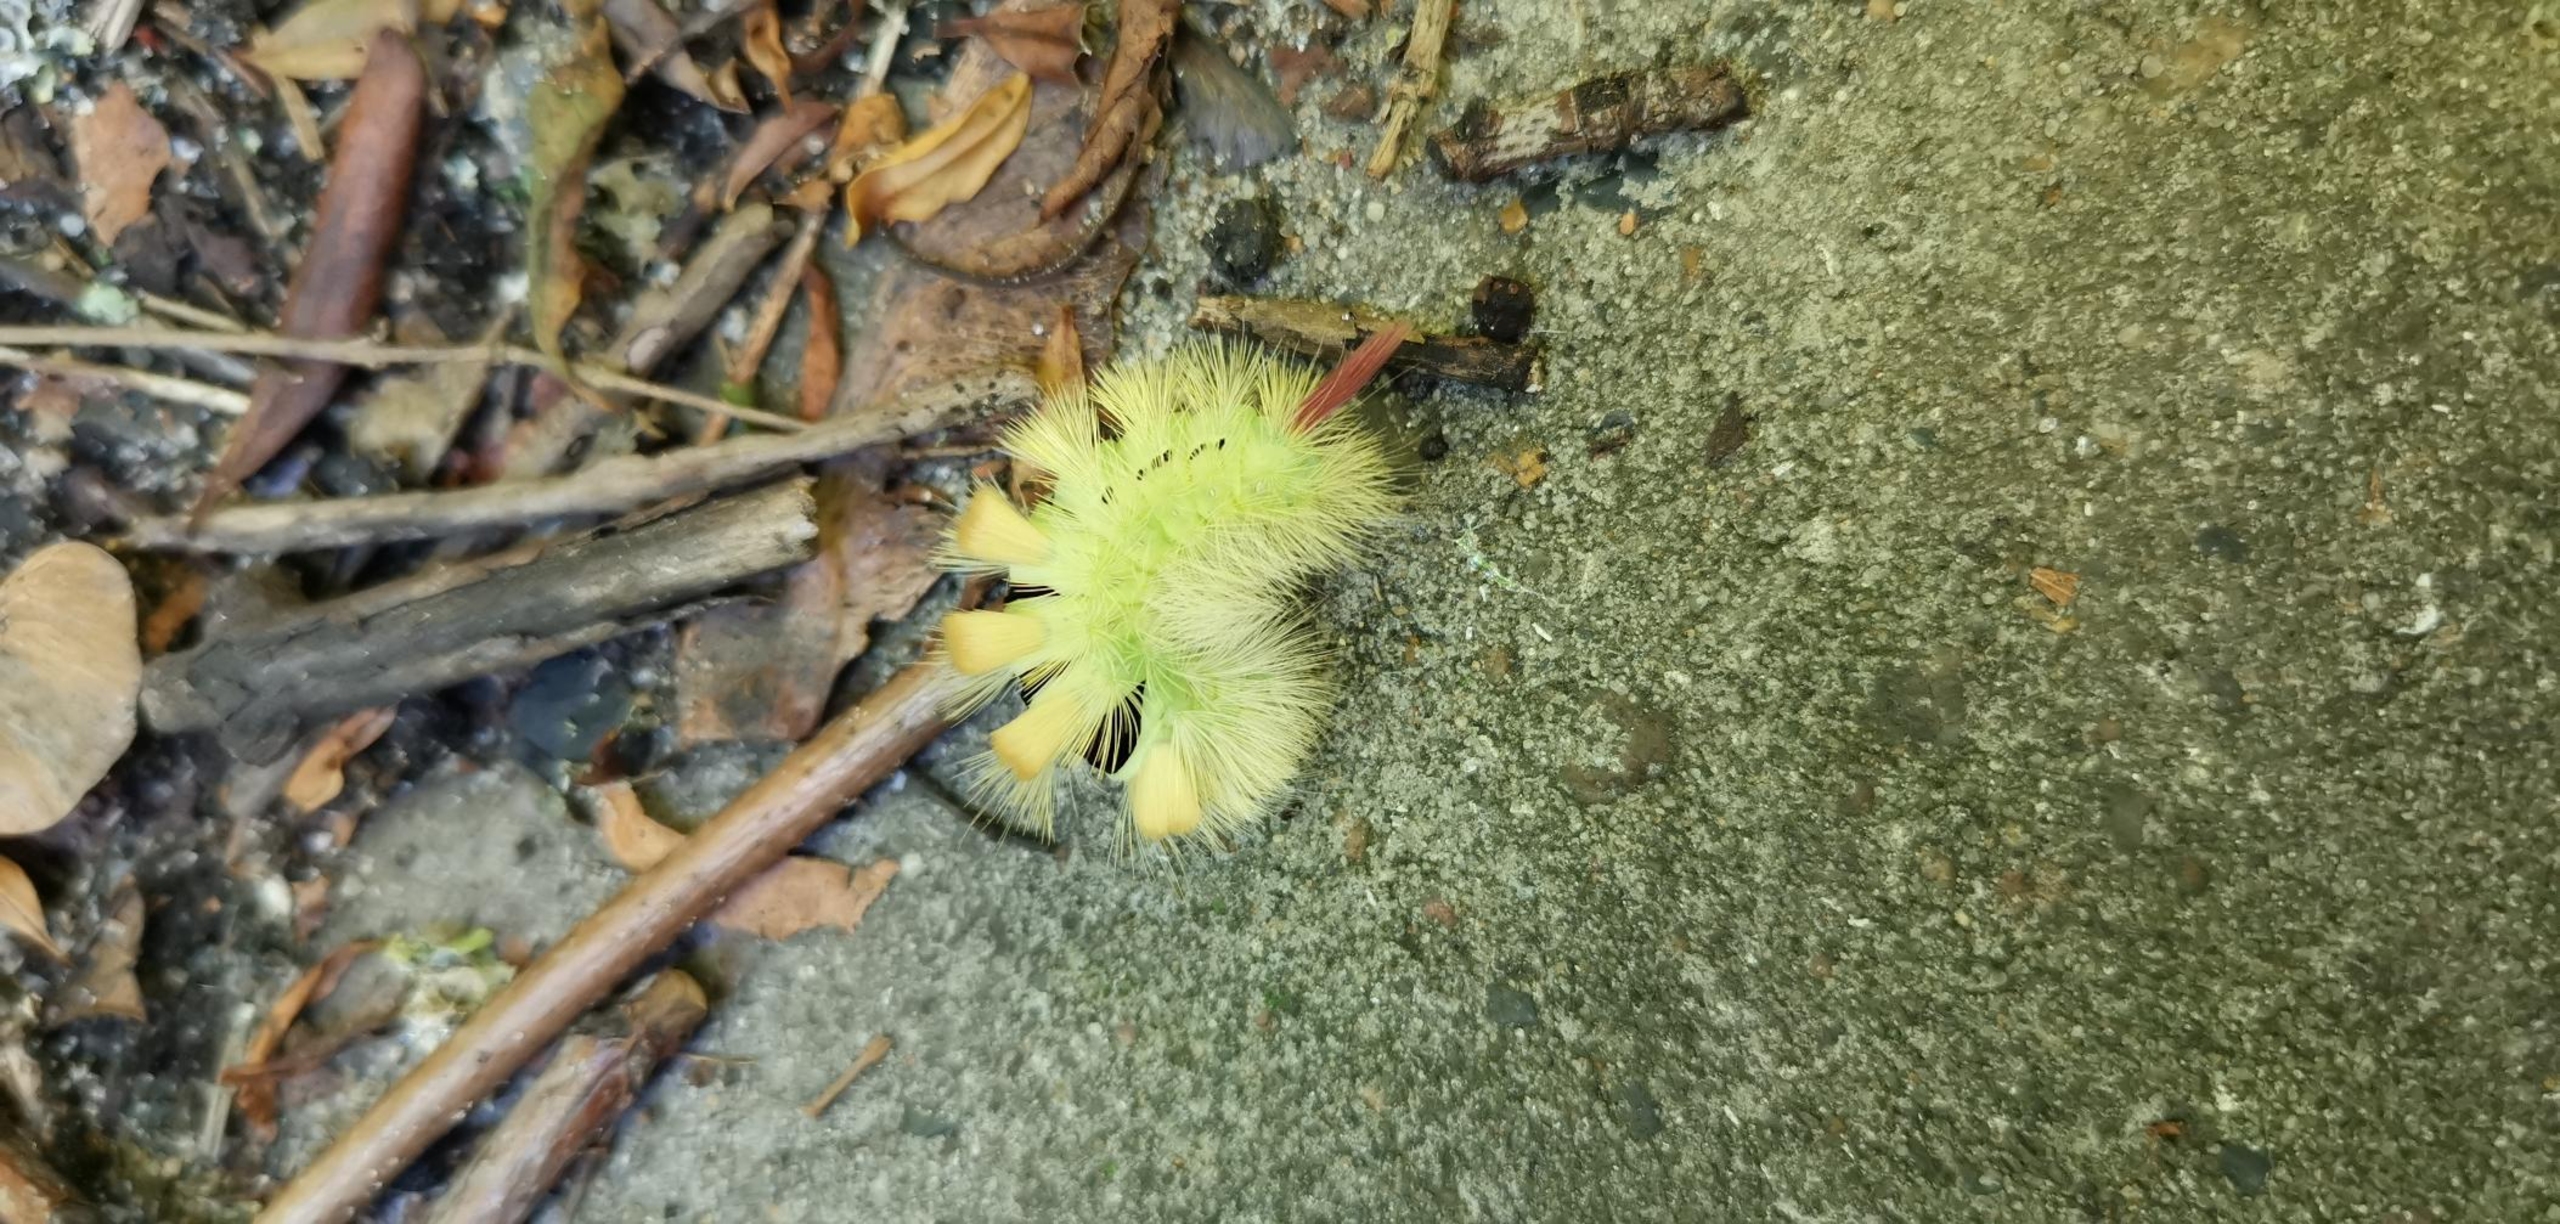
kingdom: Animalia
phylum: Arthropoda
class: Insecta
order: Lepidoptera
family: Erebidae
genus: Calliteara
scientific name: Calliteara pudibunda
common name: Bøgenonne
